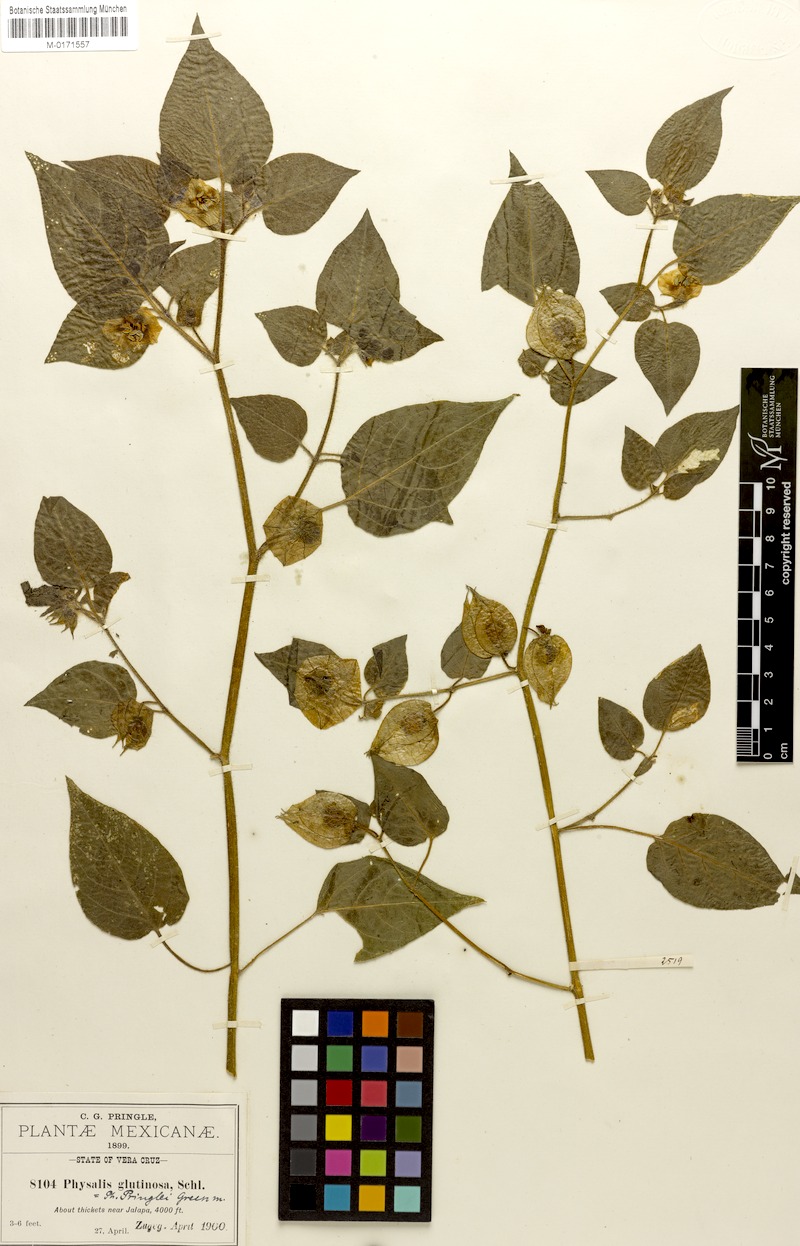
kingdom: Plantae
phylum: Tracheophyta
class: Magnoliopsida
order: Solanales
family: Solanaceae
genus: Physalis
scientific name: Physalis pringlei
